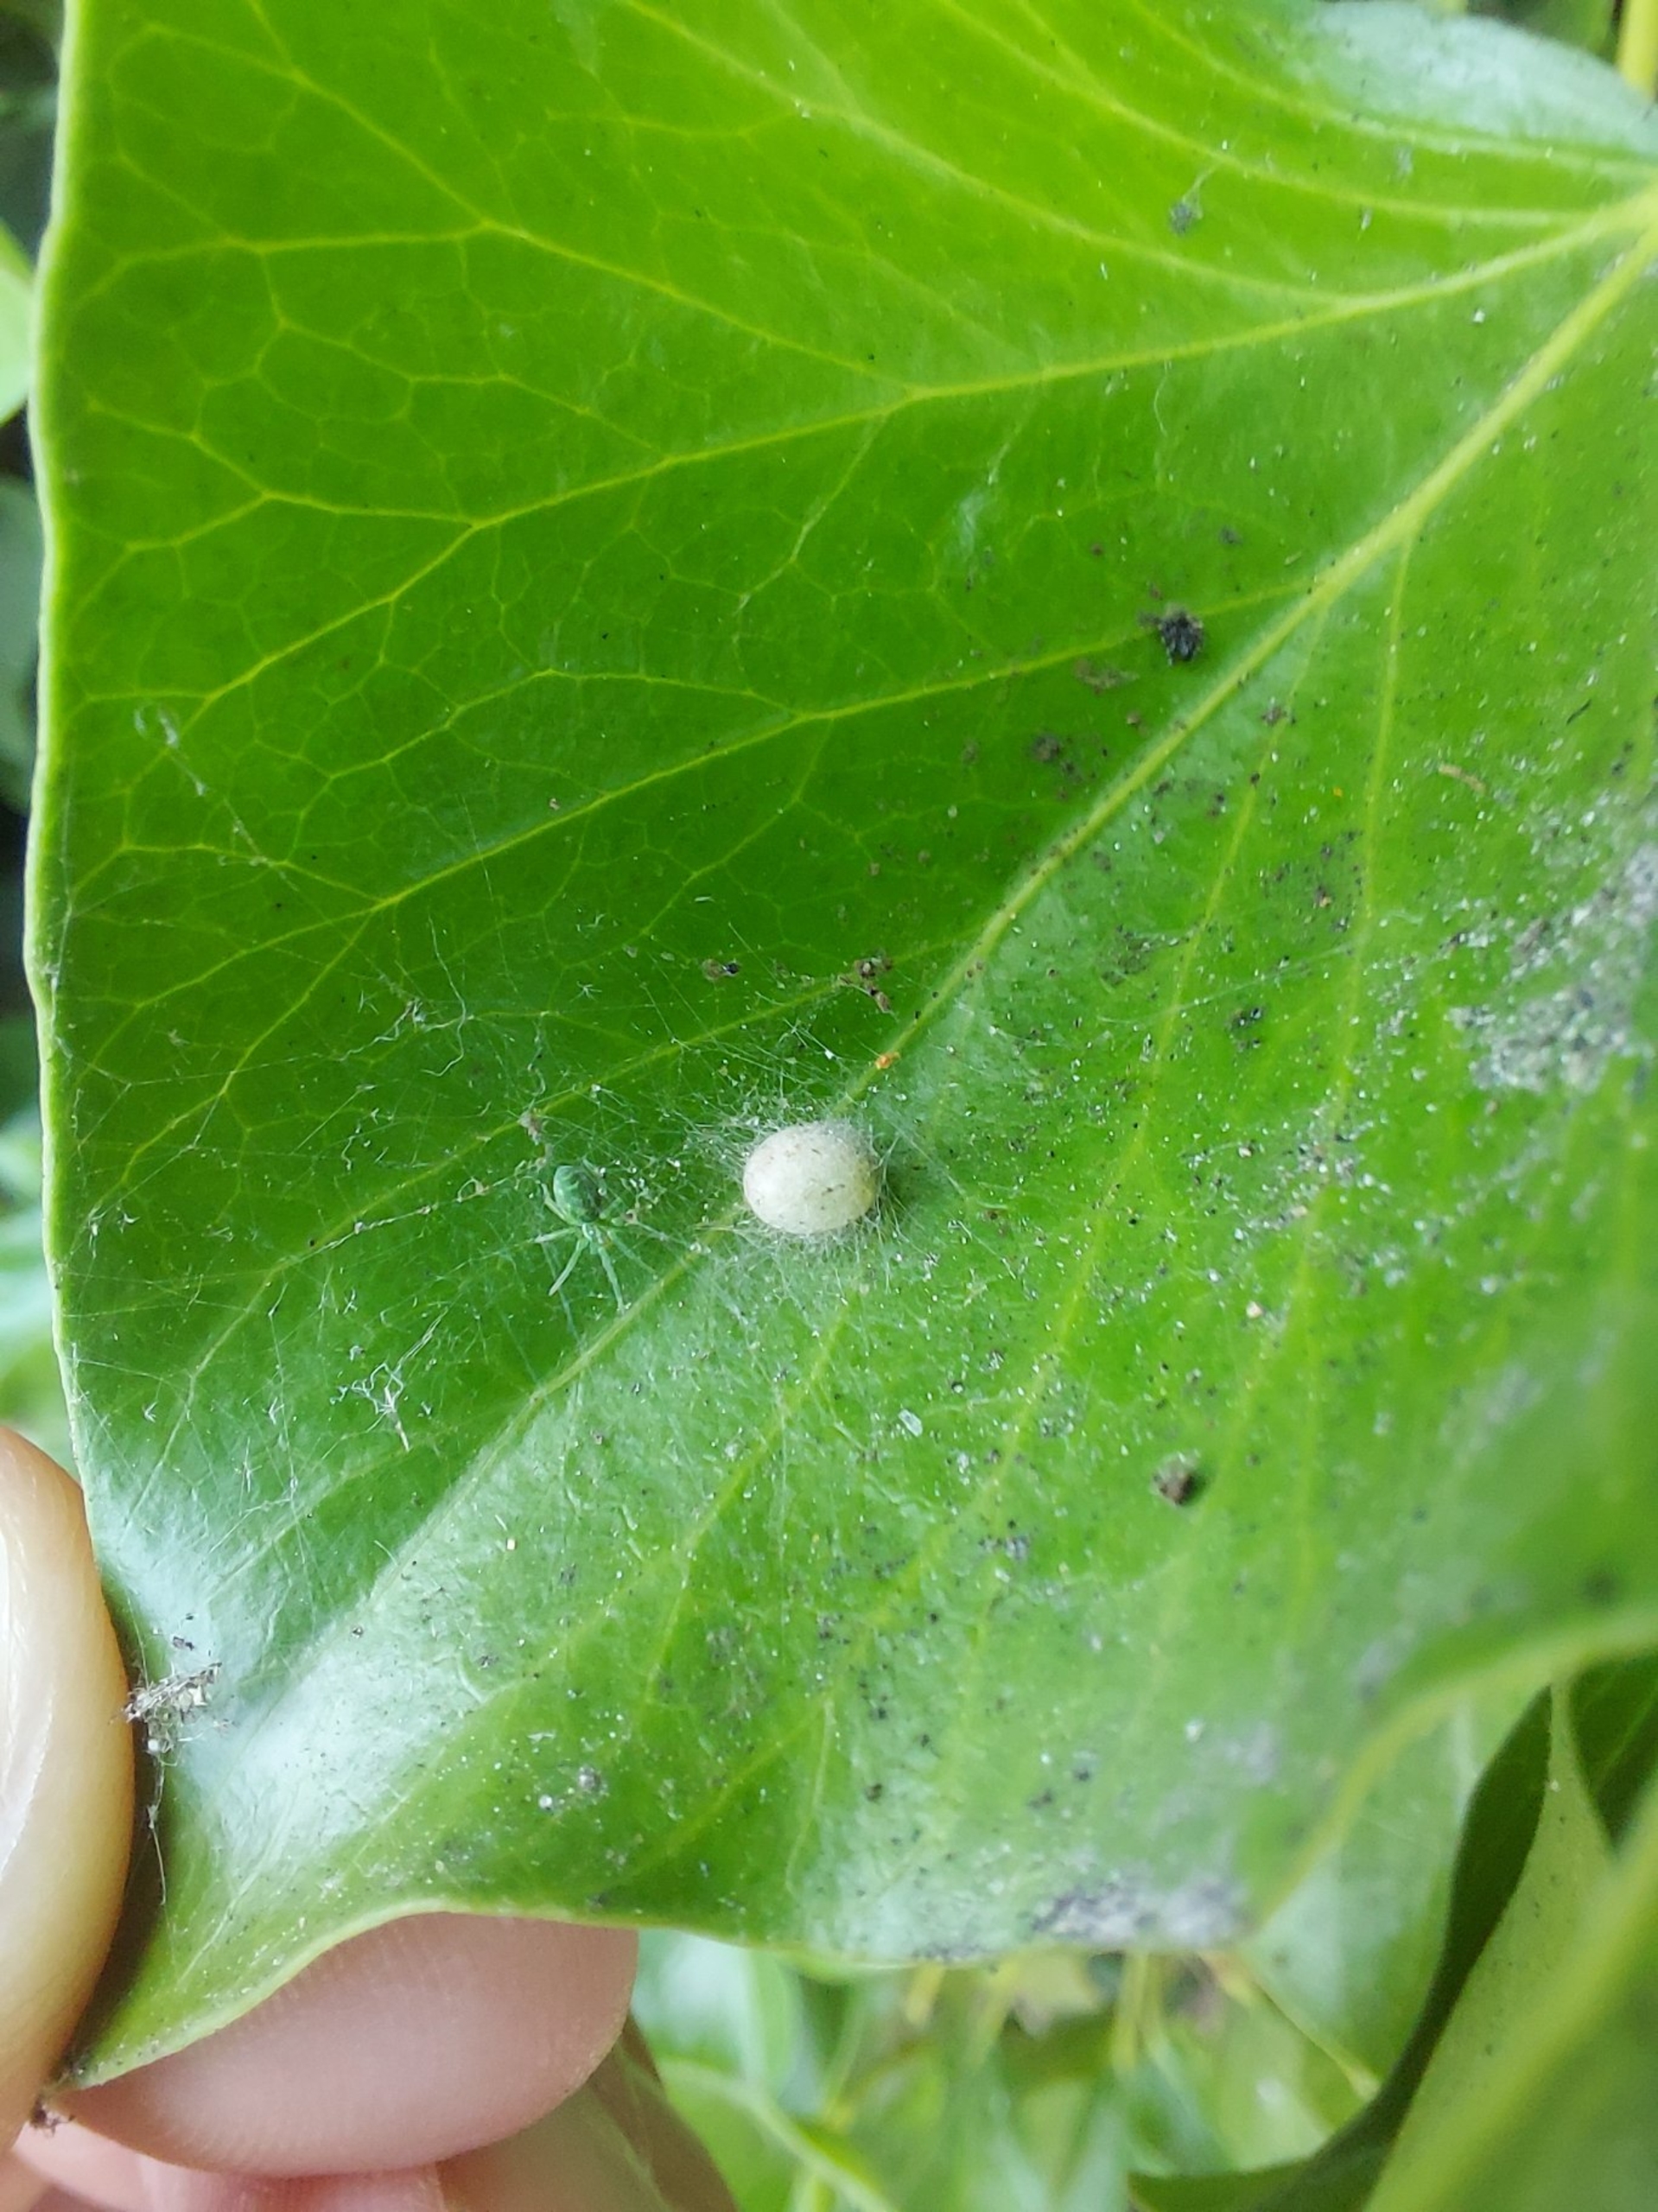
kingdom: Animalia
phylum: Arthropoda
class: Arachnida
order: Araneae
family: Dictynidae
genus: Nigma
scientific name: Nigma walckenaeri
